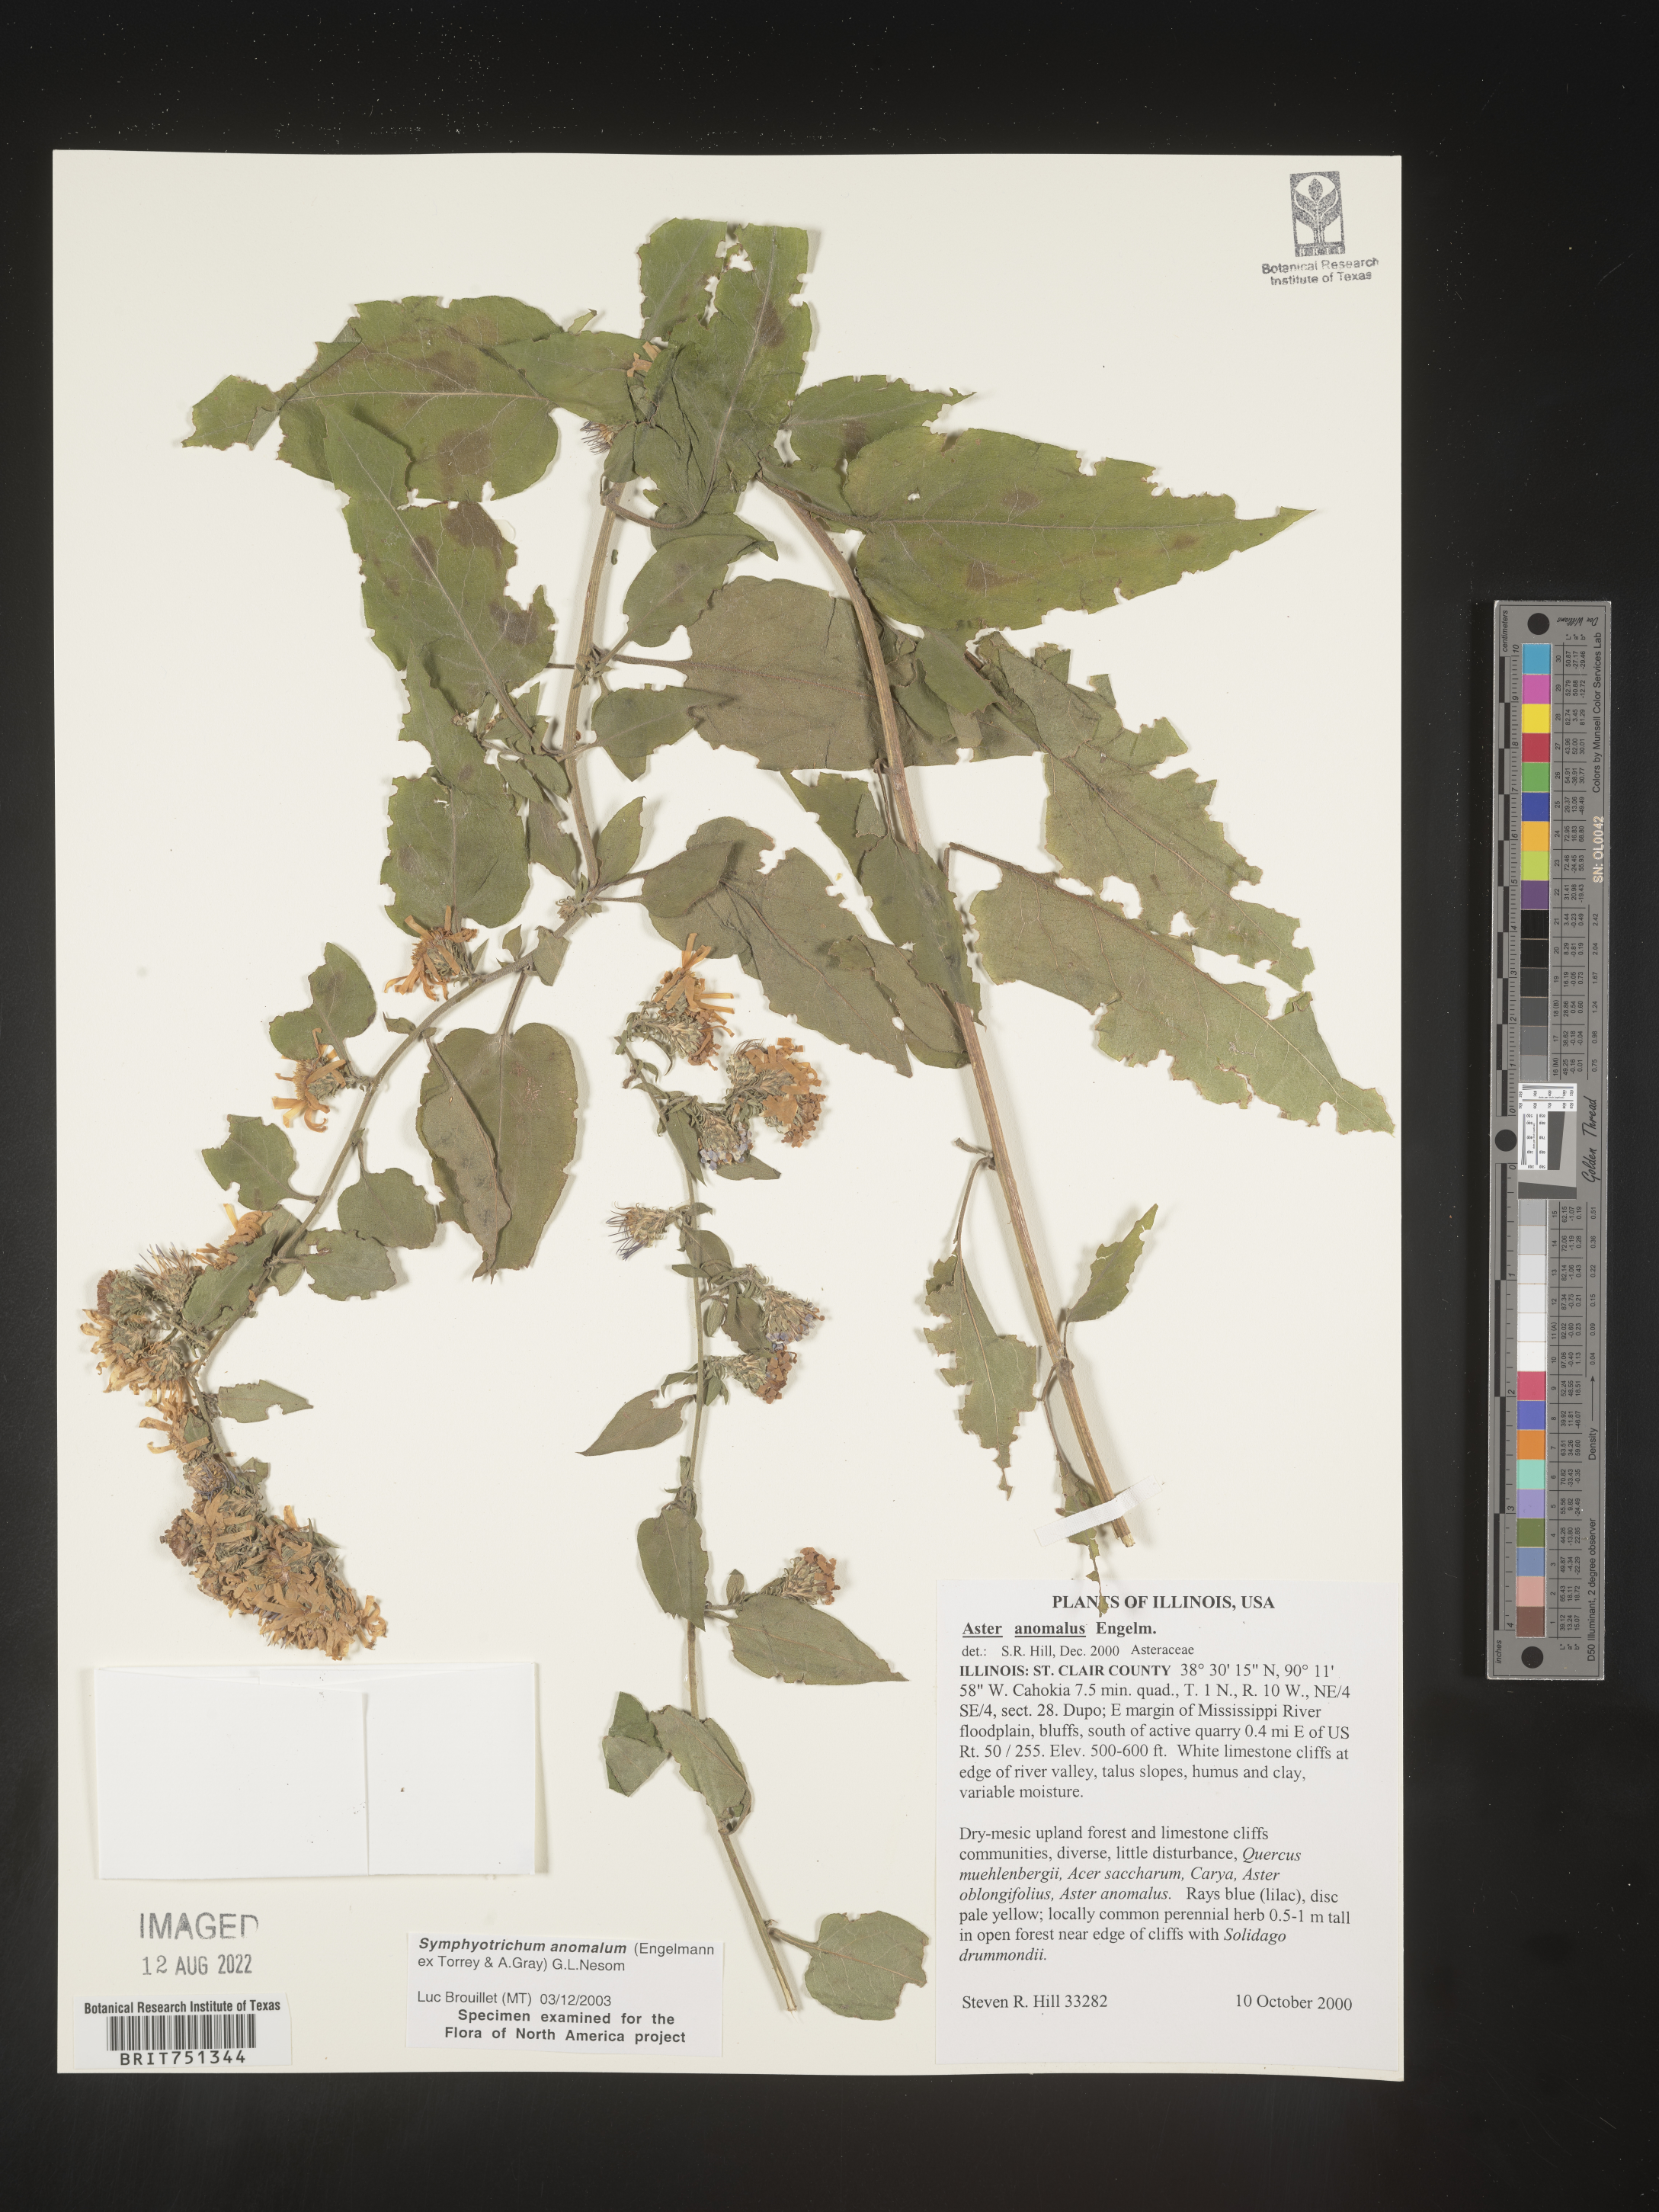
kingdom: Plantae
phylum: Tracheophyta
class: Magnoliopsida
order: Asterales
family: Asteraceae
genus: Symphyotrichum
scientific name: Symphyotrichum anomalum
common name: Many-ray aster
